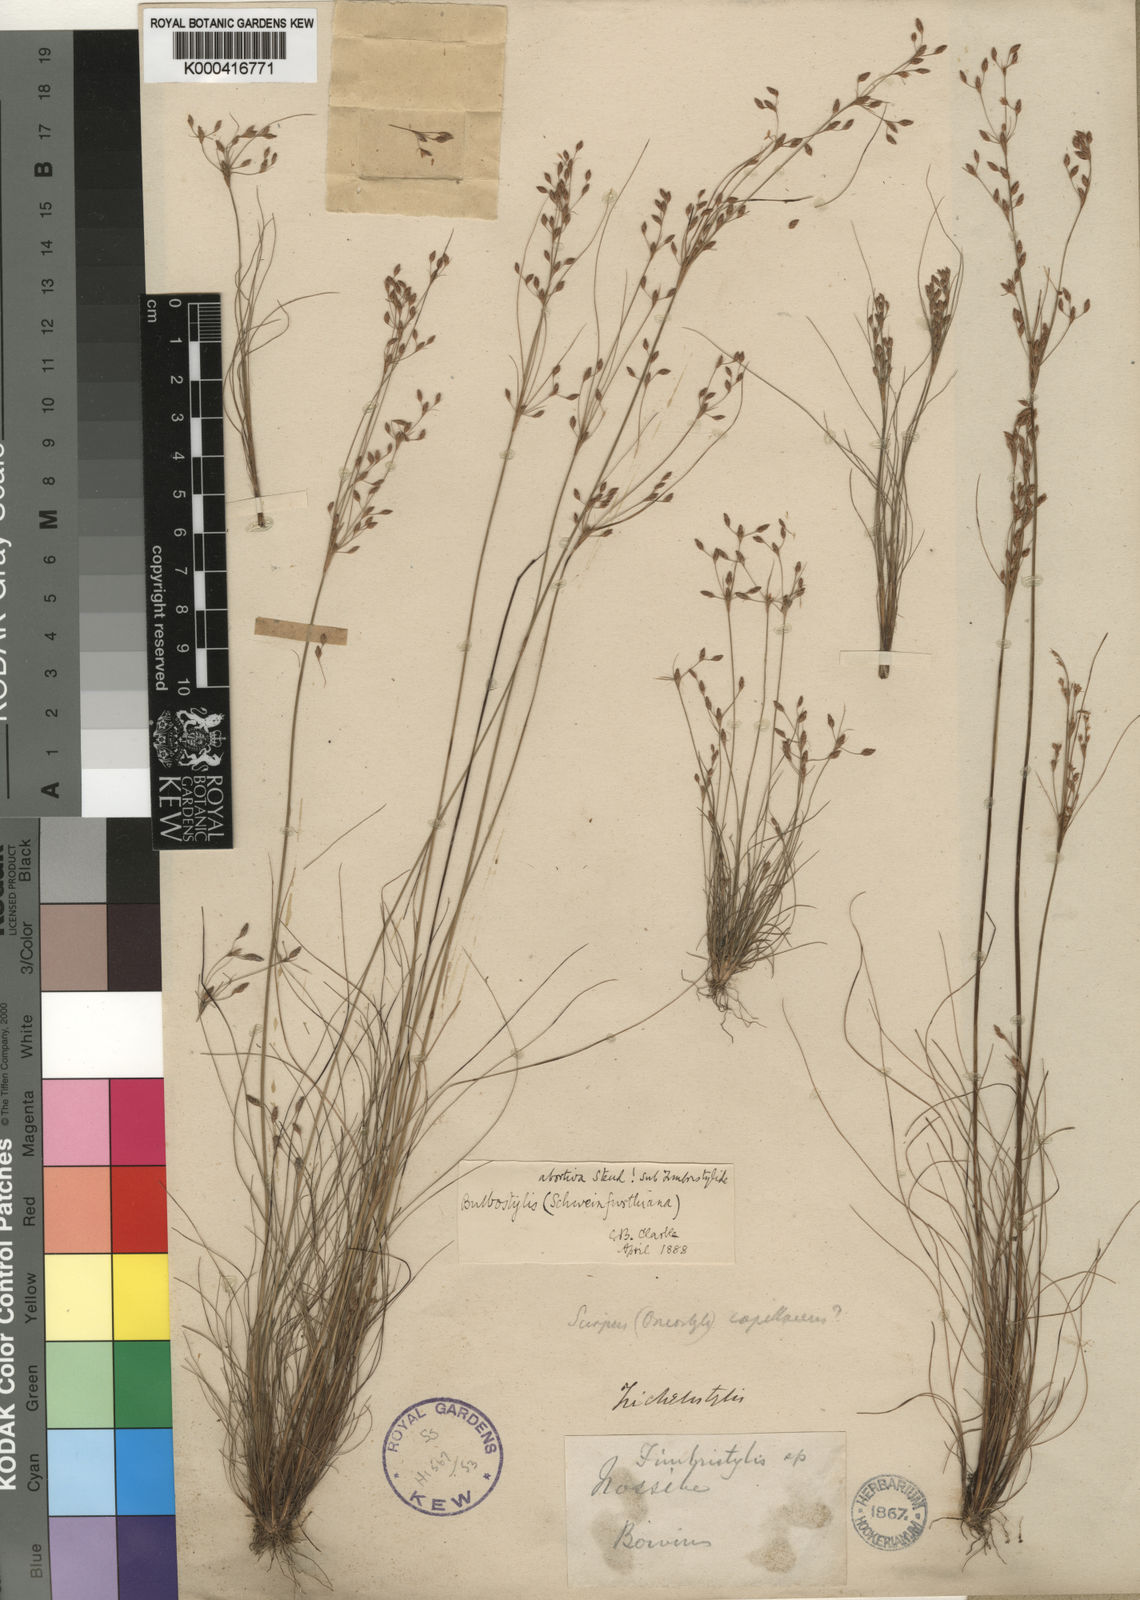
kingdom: Plantae
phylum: Tracheophyta
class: Liliopsida
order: Poales
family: Cyperaceae
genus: Bulbostylis
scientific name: Bulbostylis abortiva
